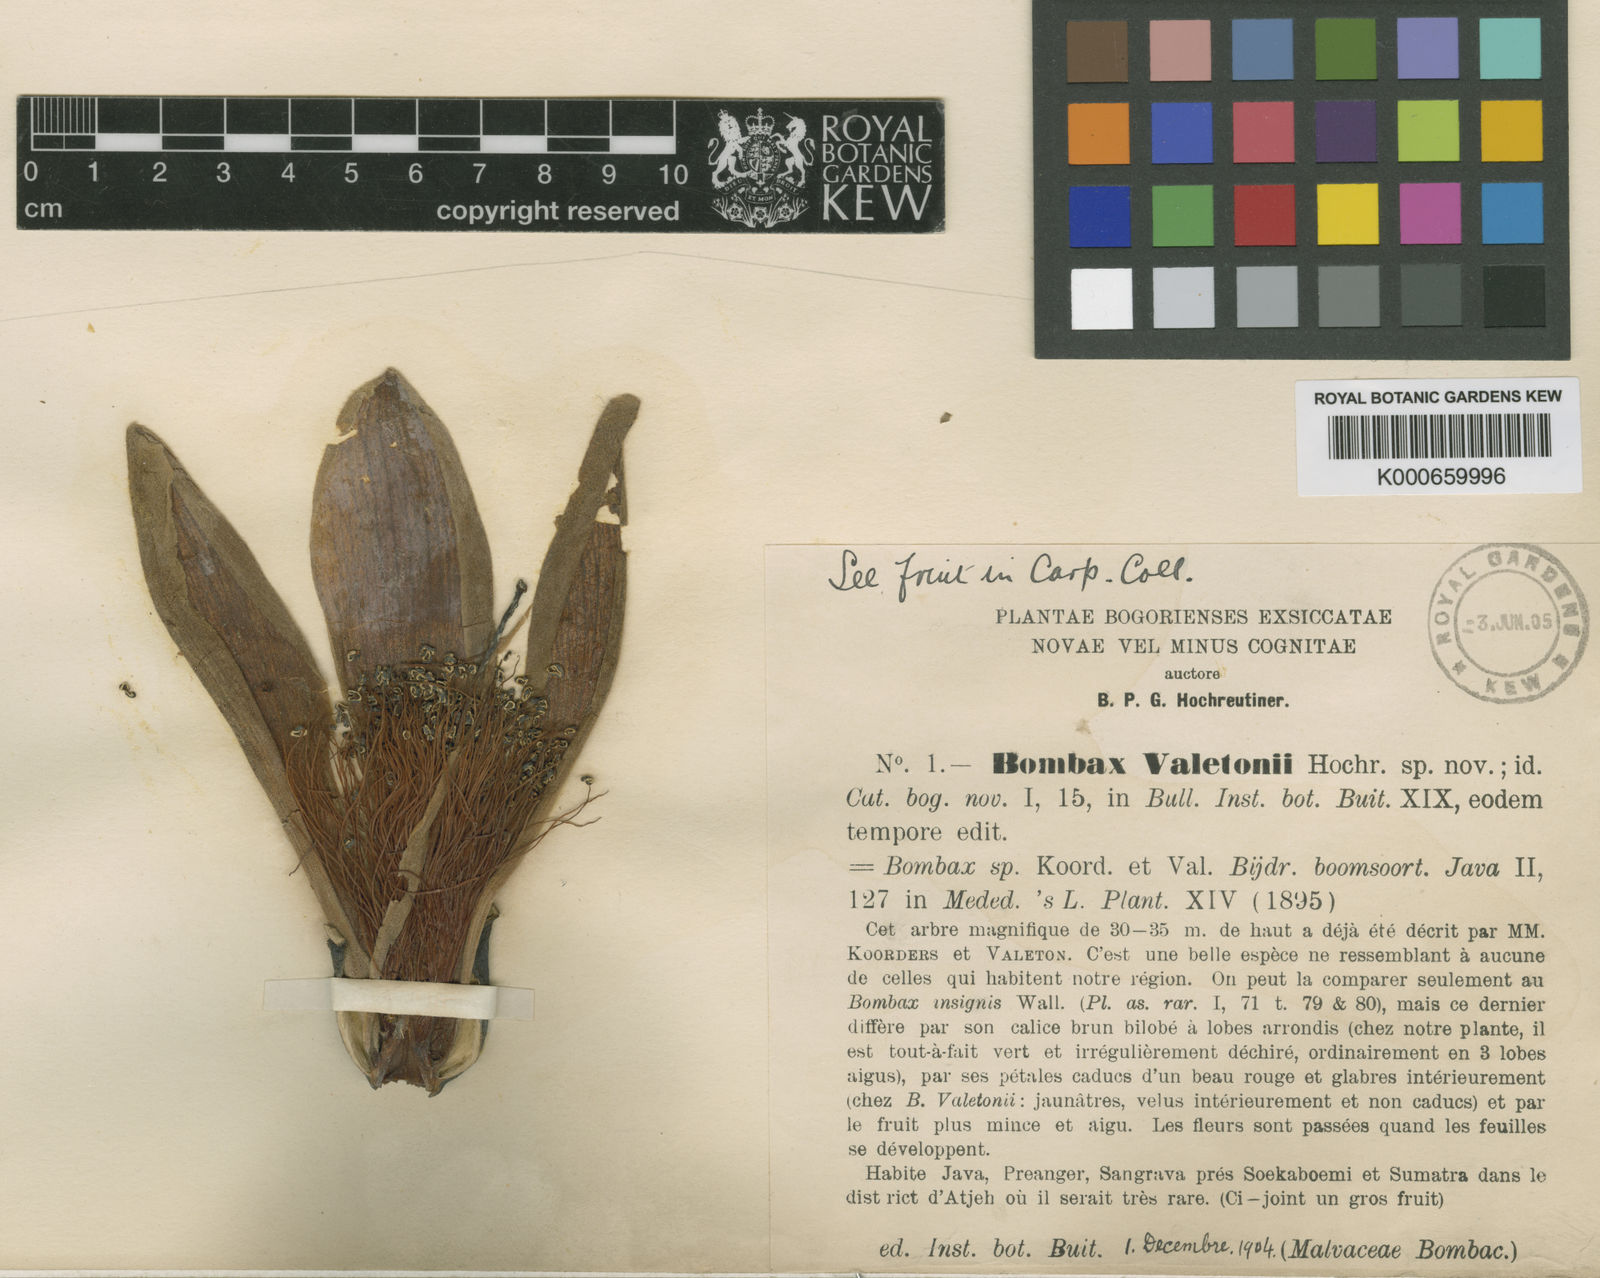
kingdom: Plantae
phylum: Tracheophyta
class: Magnoliopsida
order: Malvales
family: Malvaceae
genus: Bombax
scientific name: Bombax anceps
